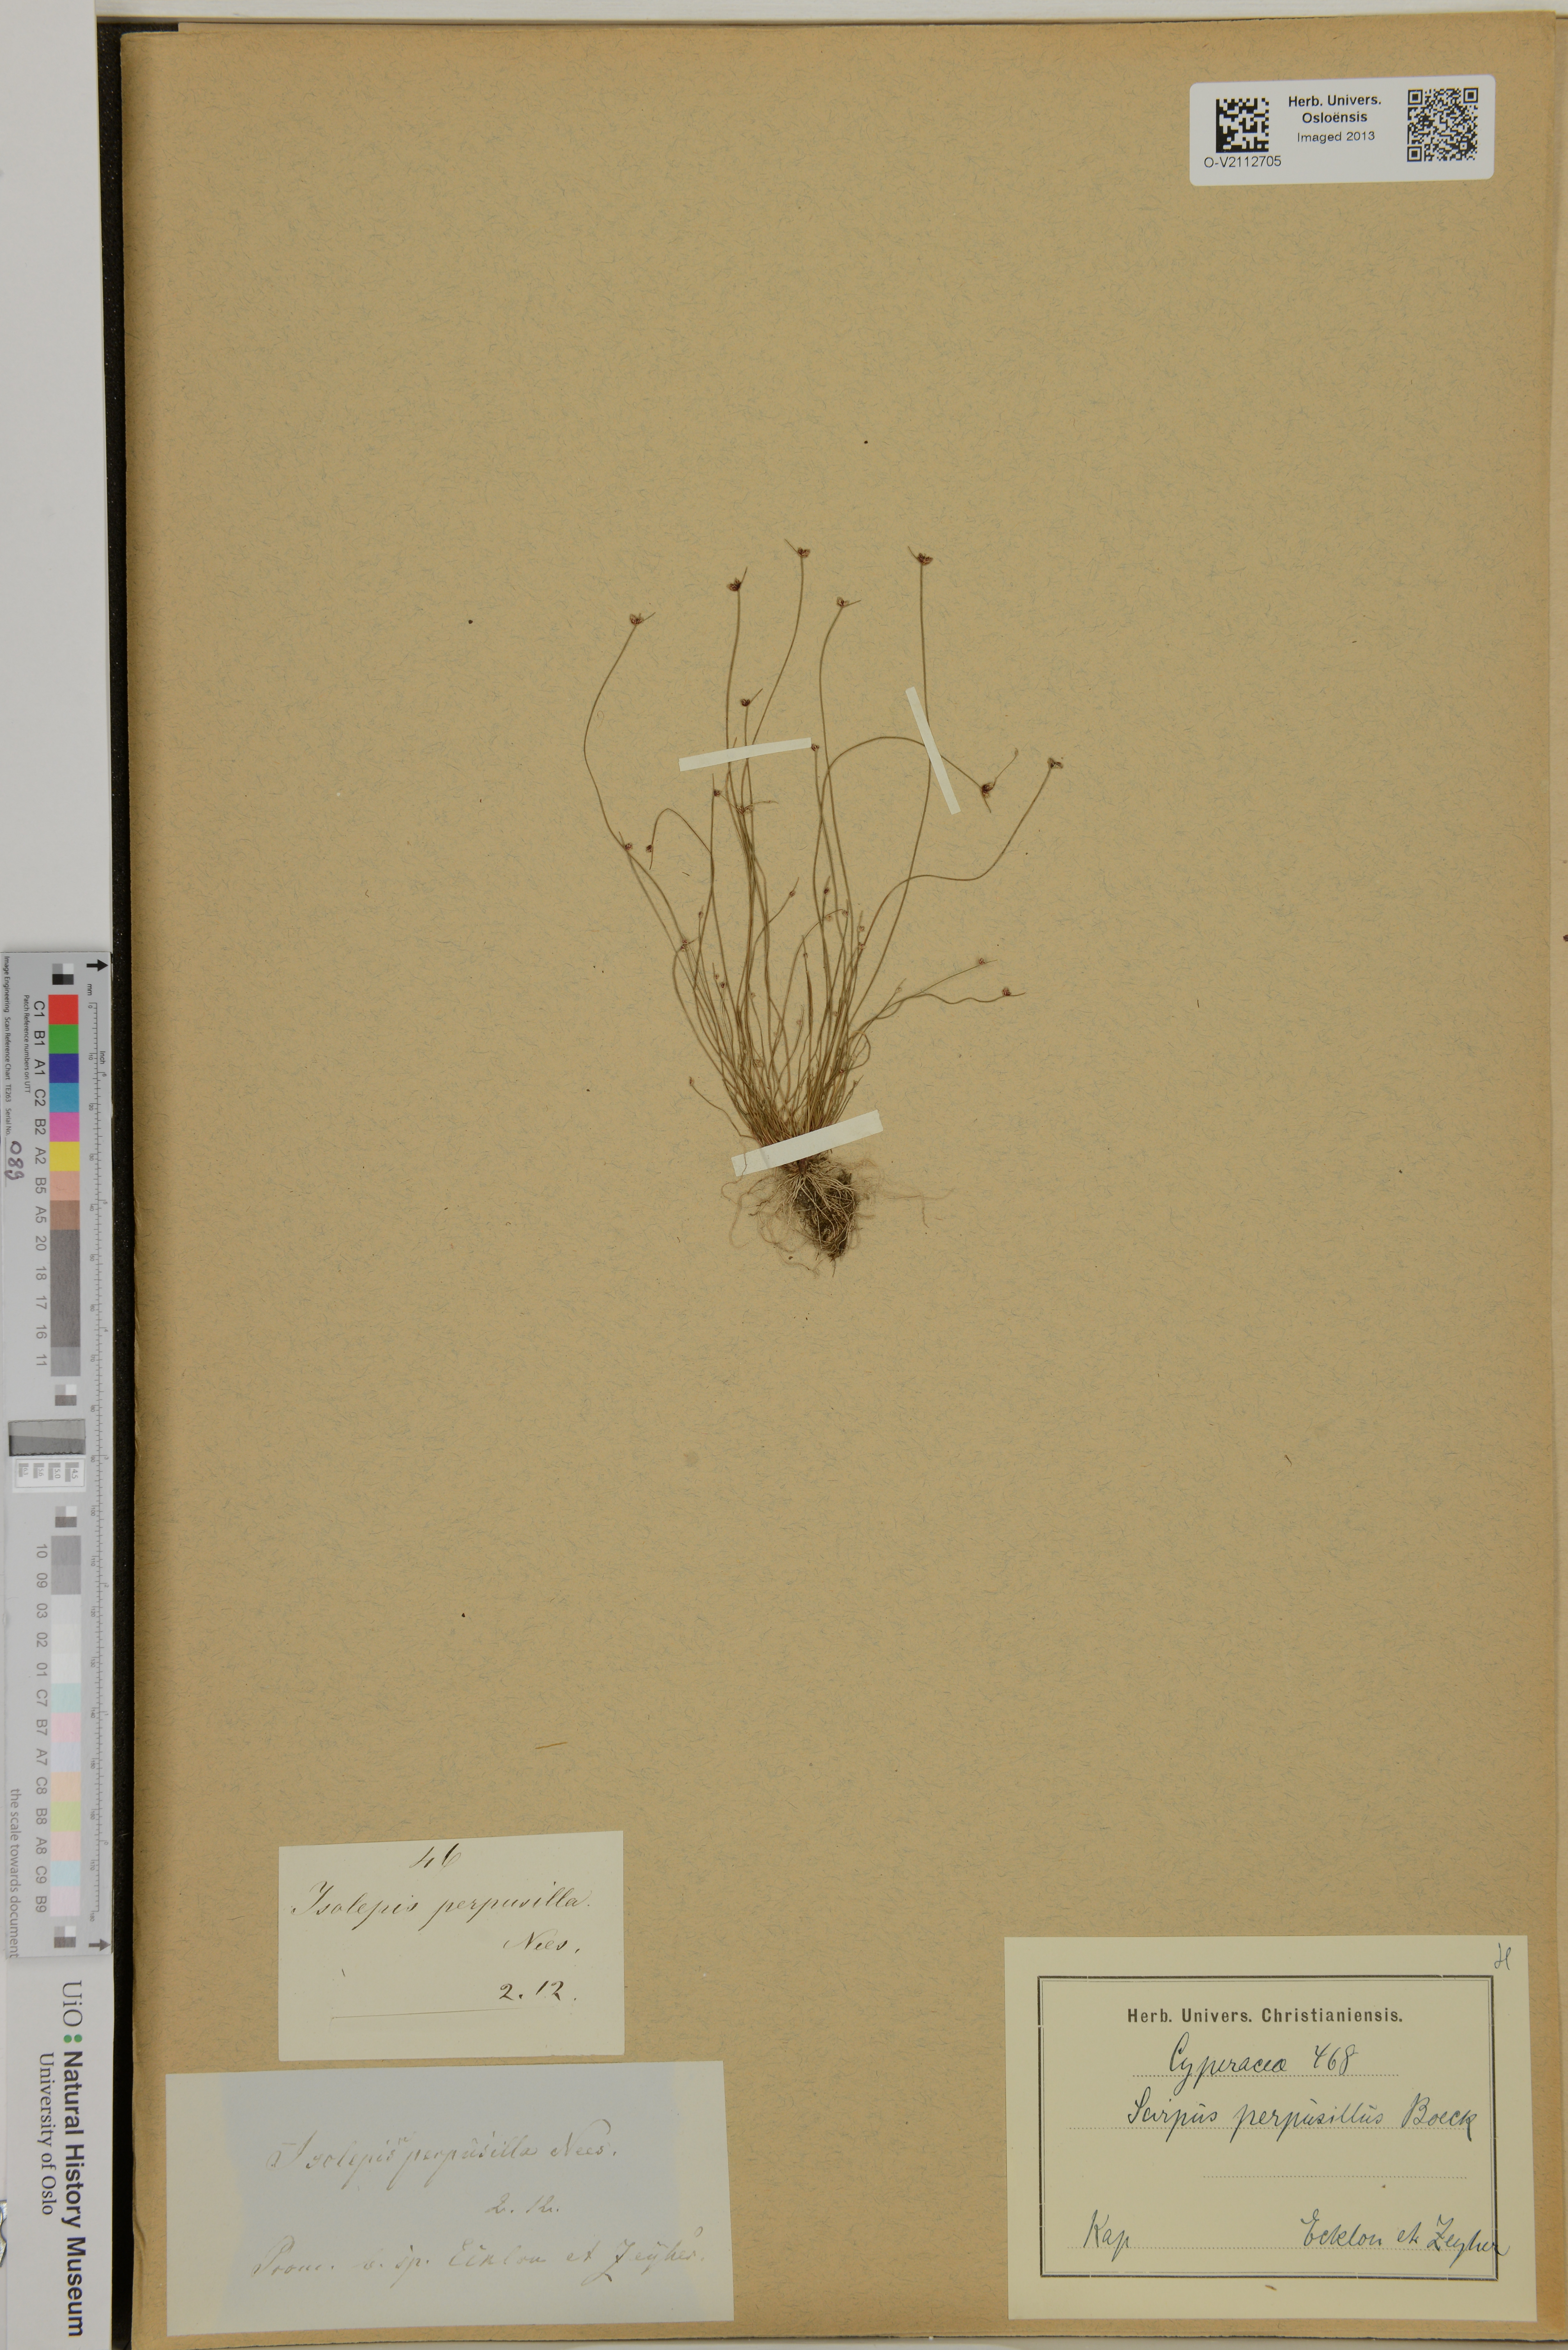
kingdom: Plantae
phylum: Tracheophyta
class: Liliopsida
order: Poales
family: Cyperaceae
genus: Isolepis
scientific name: Isolepis ranko
